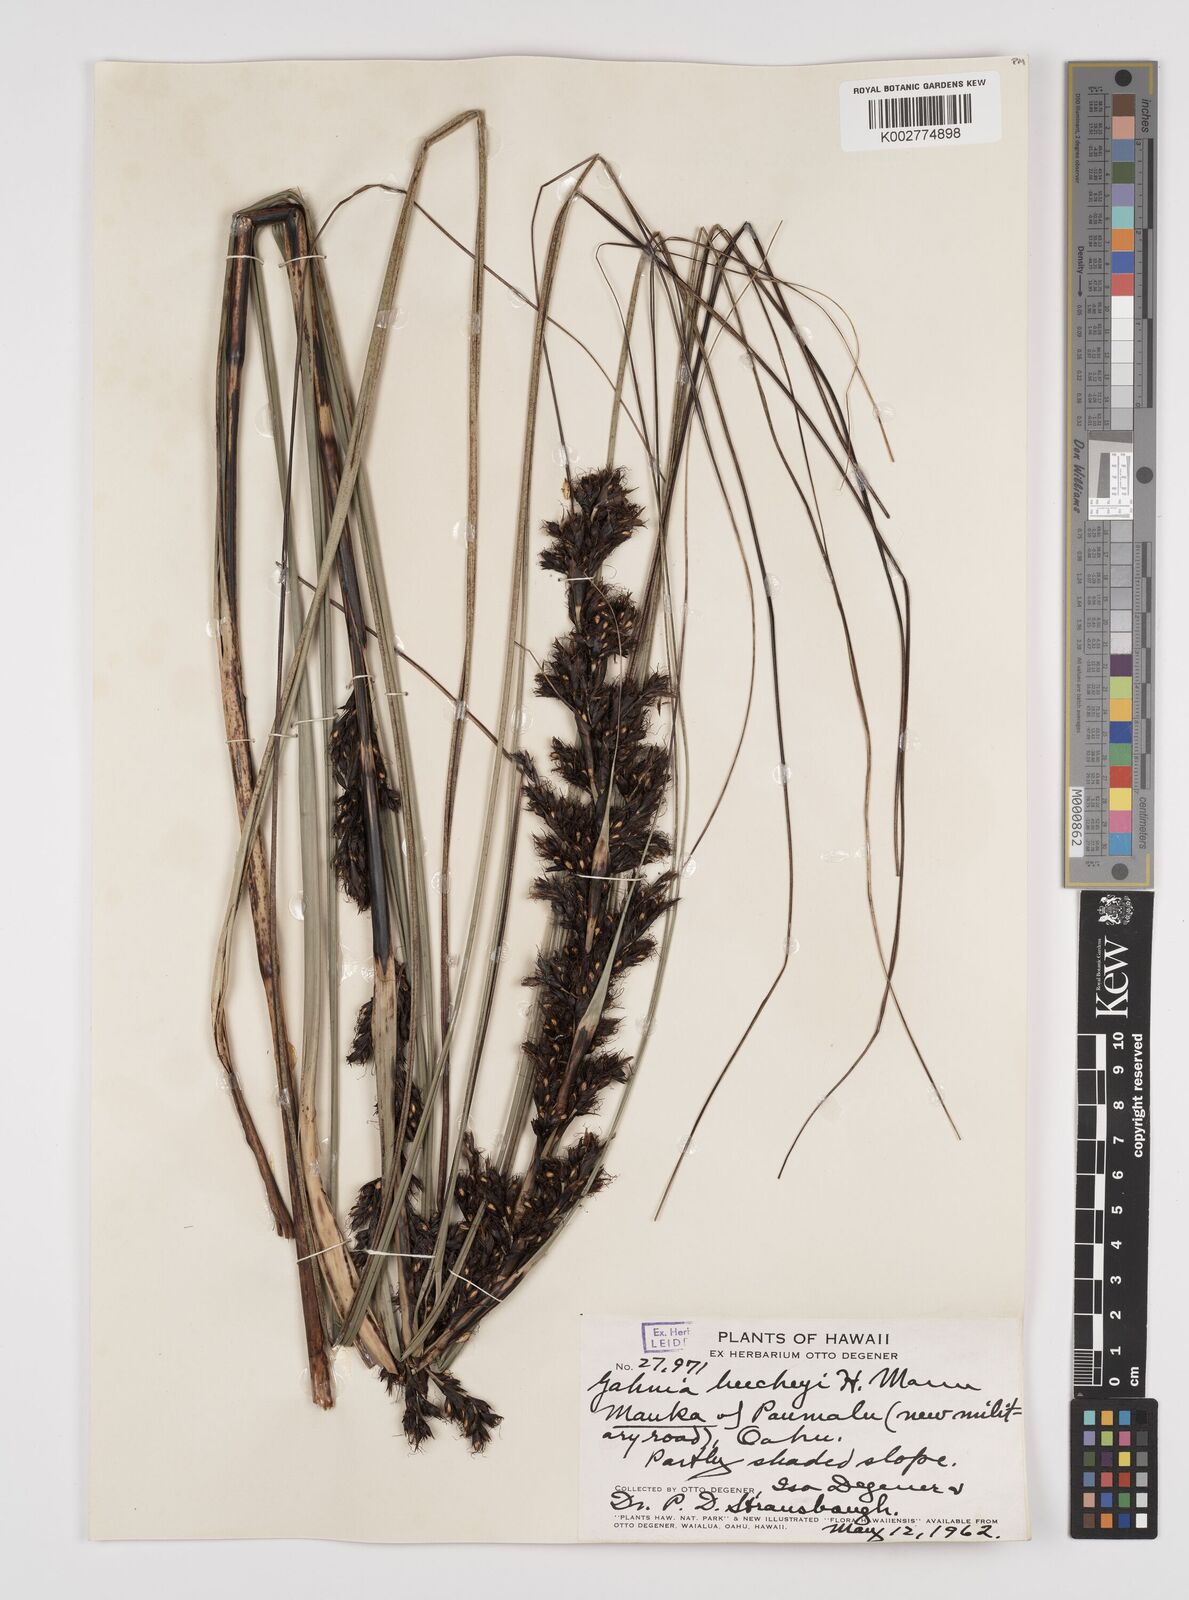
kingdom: Plantae
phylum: Tracheophyta
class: Liliopsida
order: Poales
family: Cyperaceae
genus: Gahnia
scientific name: Gahnia beecheyi
